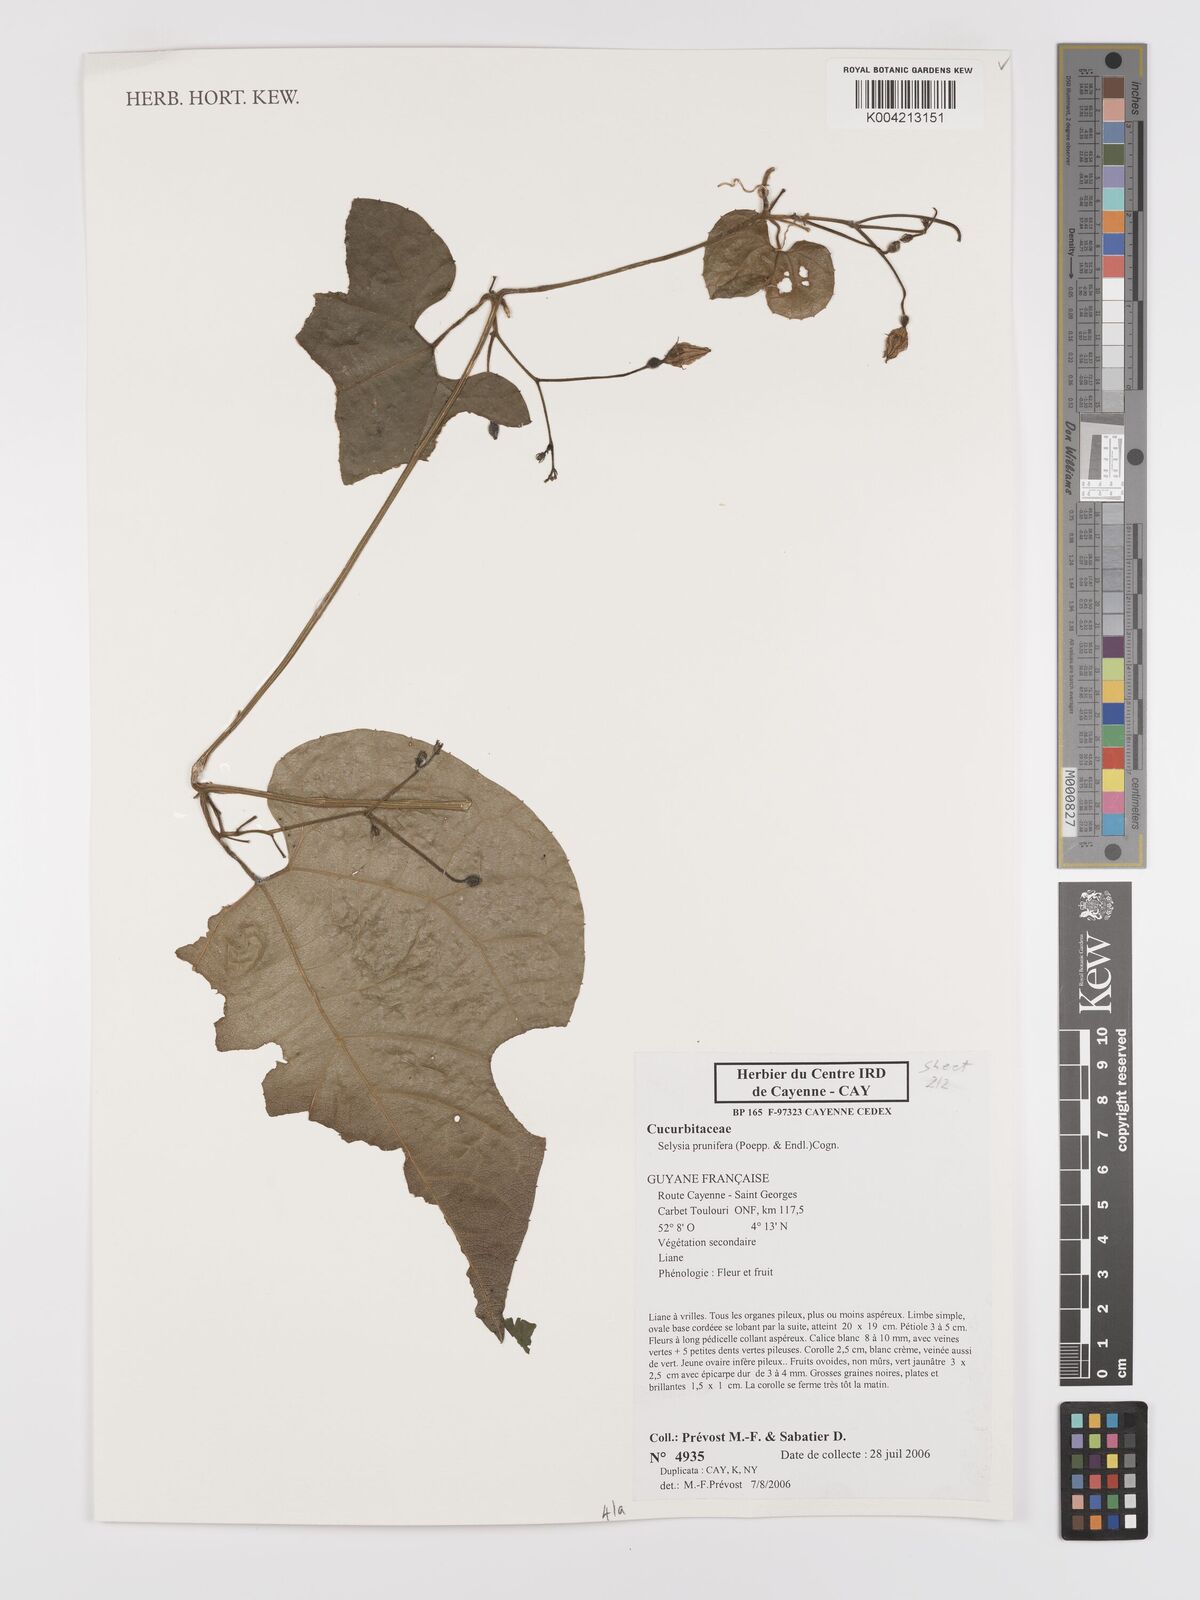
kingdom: Plantae
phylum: Tracheophyta
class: Magnoliopsida
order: Cucurbitales
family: Cucurbitaceae
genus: Cayaponia
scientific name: Cayaponia prunifera
